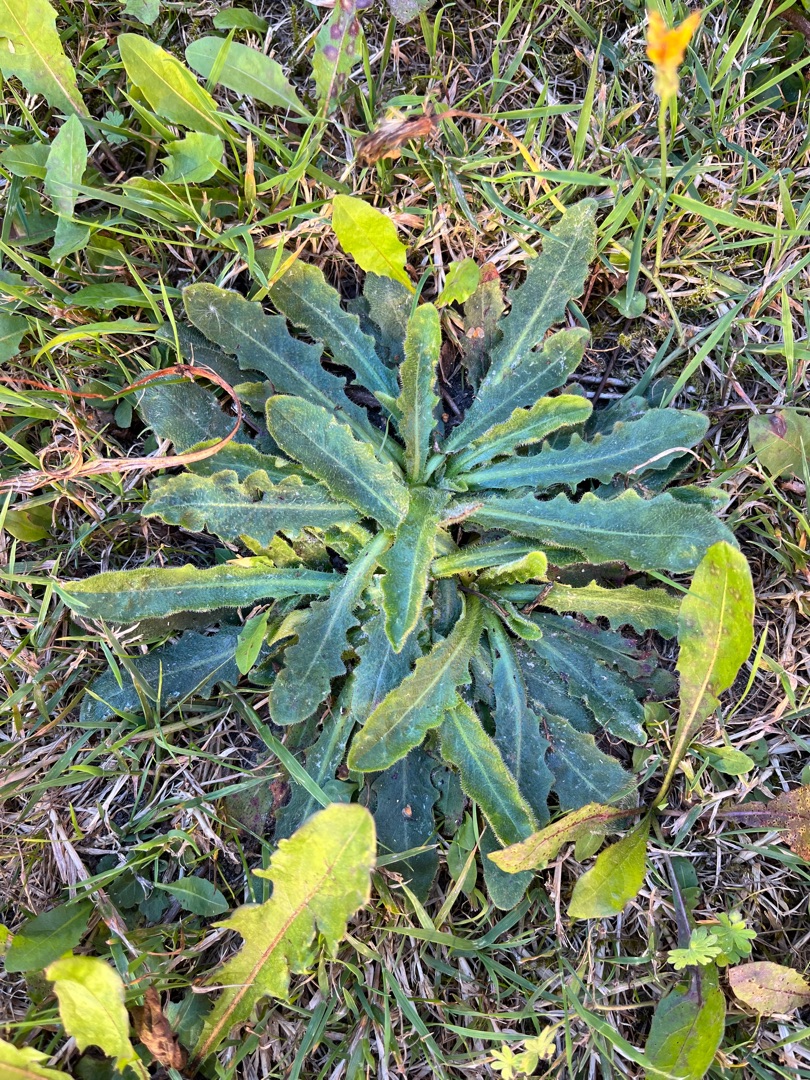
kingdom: Plantae
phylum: Tracheophyta
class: Magnoliopsida
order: Asterales
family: Asteraceae
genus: Hypochaeris
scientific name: Hypochaeris radicata
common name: Almindelig kongepen
